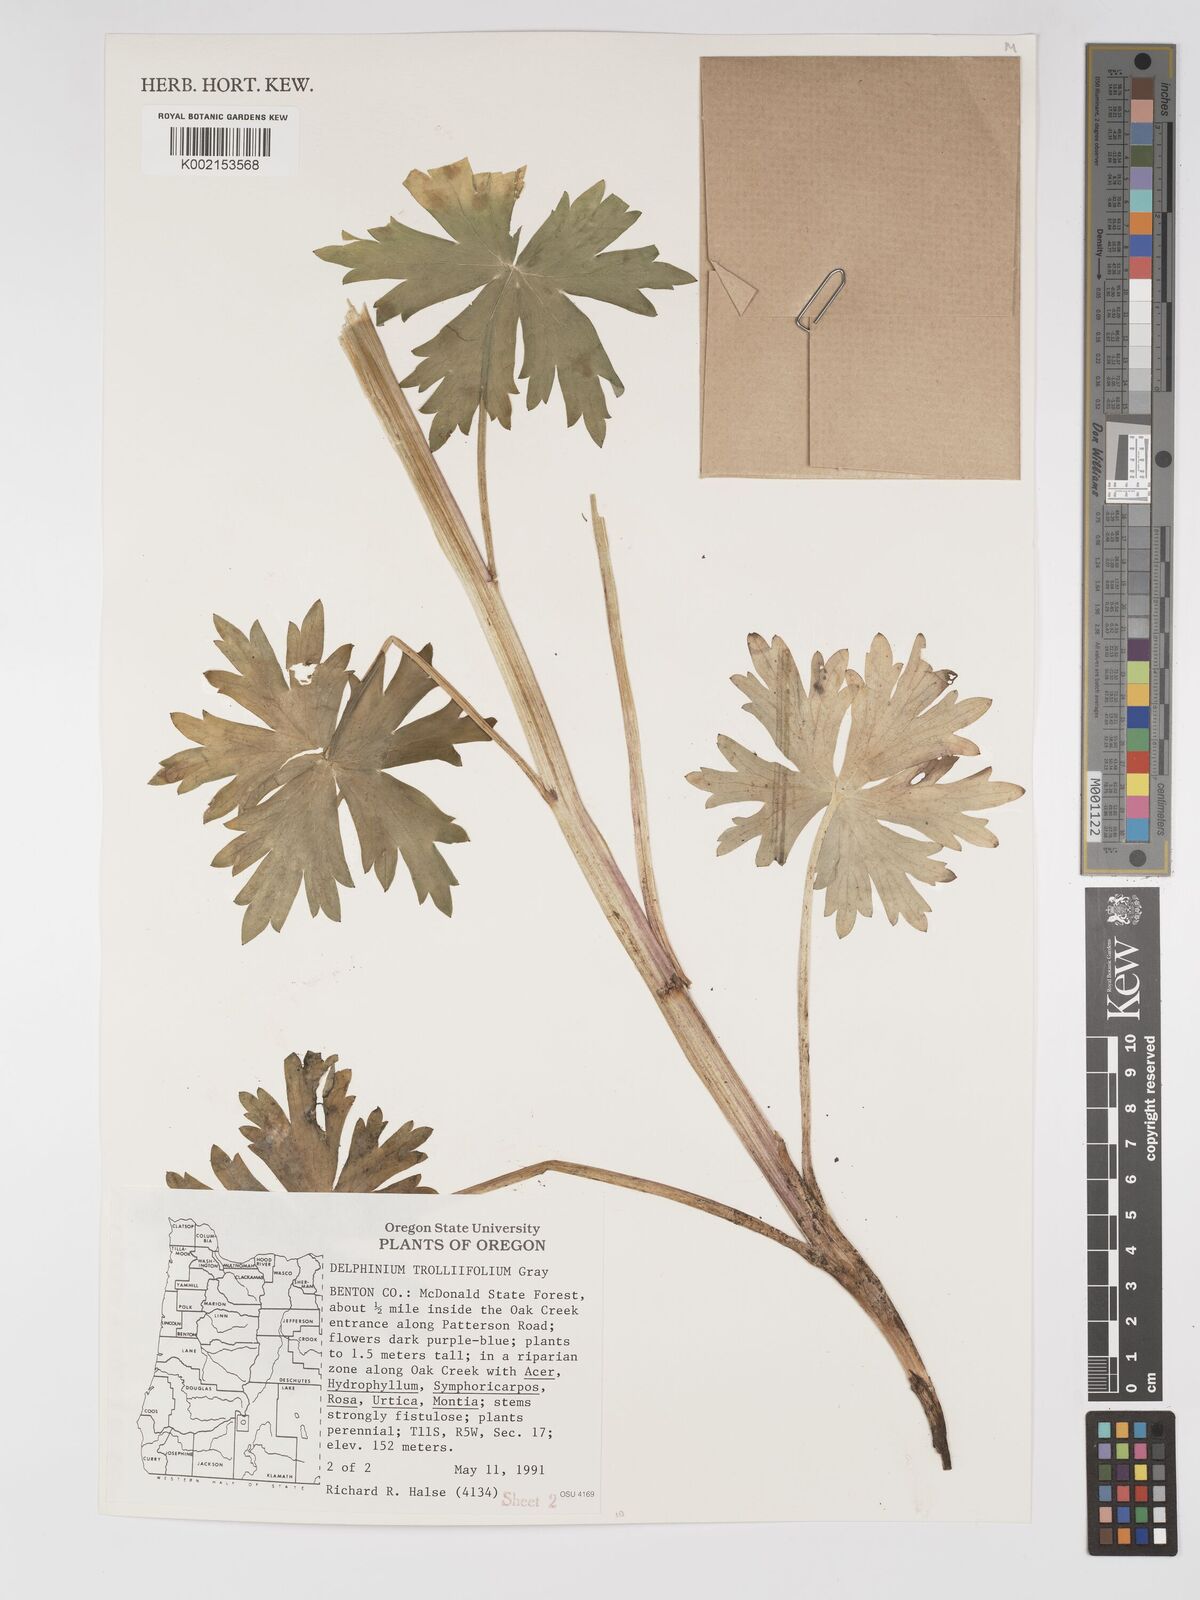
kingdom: Plantae
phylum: Tracheophyta
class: Magnoliopsida
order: Ranunculales
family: Ranunculaceae
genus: Delphinium
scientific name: Delphinium trolliifolium
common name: Cow-poison
